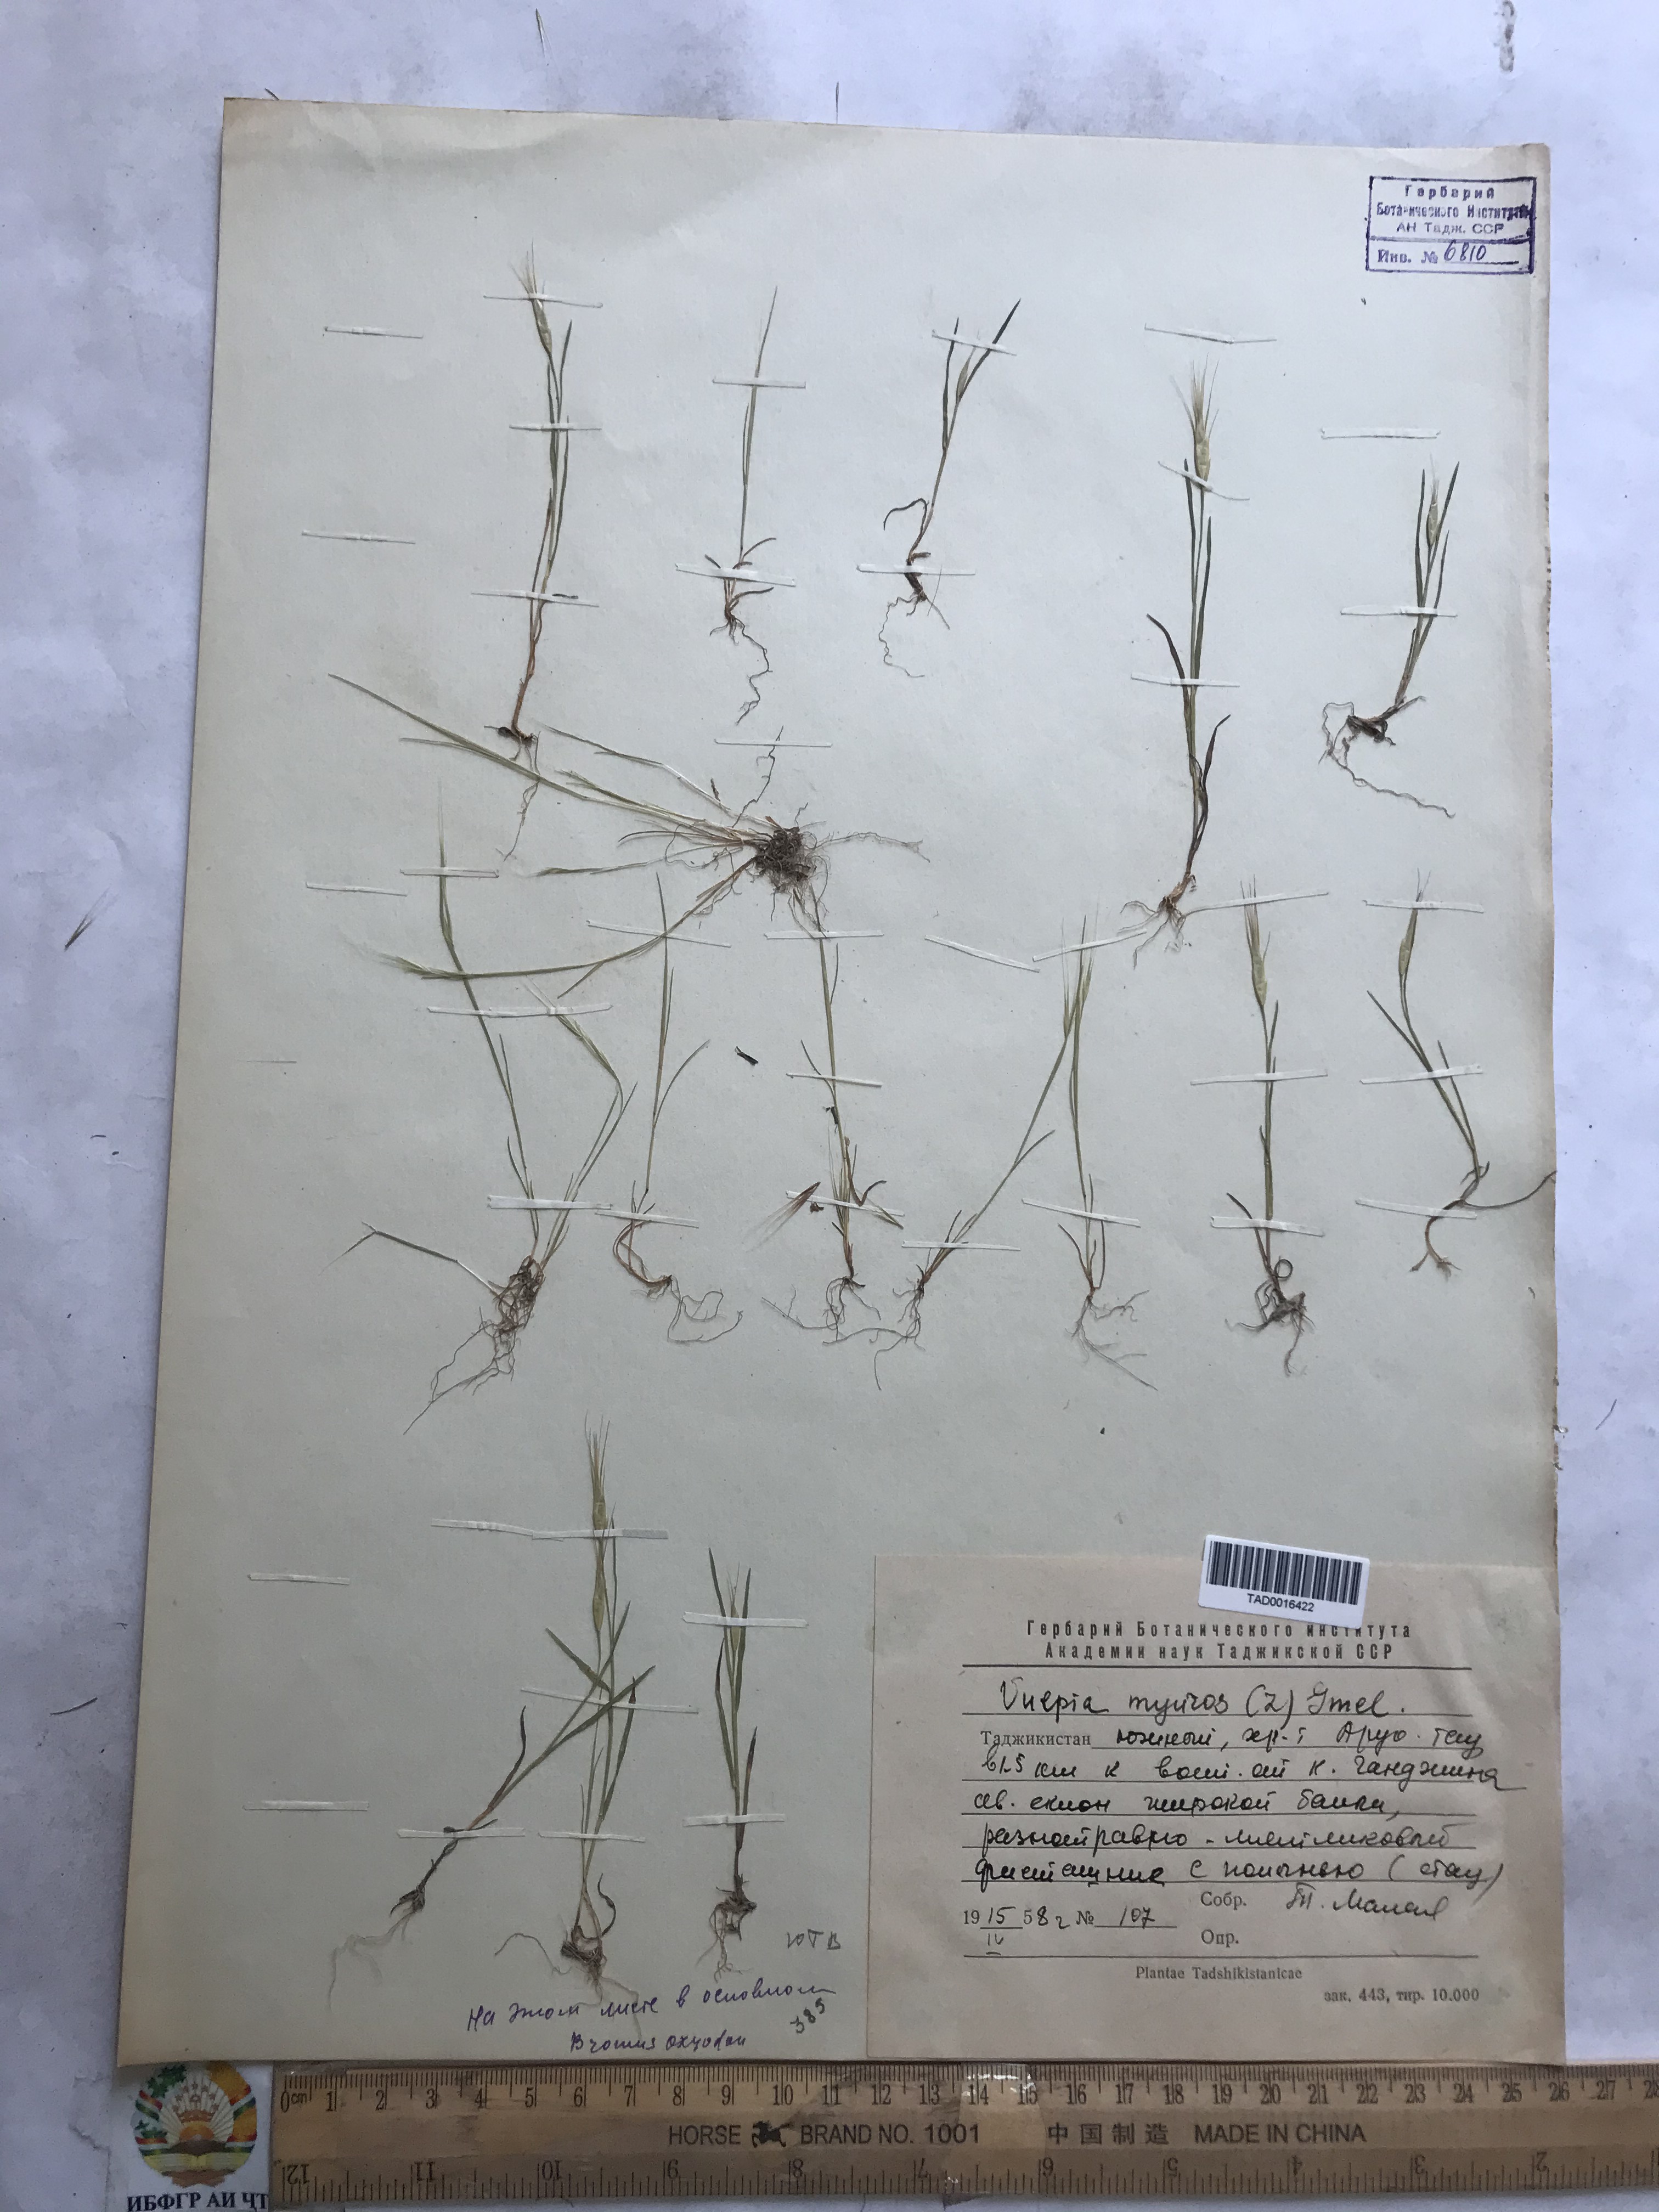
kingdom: Plantae
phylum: Tracheophyta
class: Liliopsida
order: Poales
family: Poaceae
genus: Festuca
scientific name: Festuca myuros
